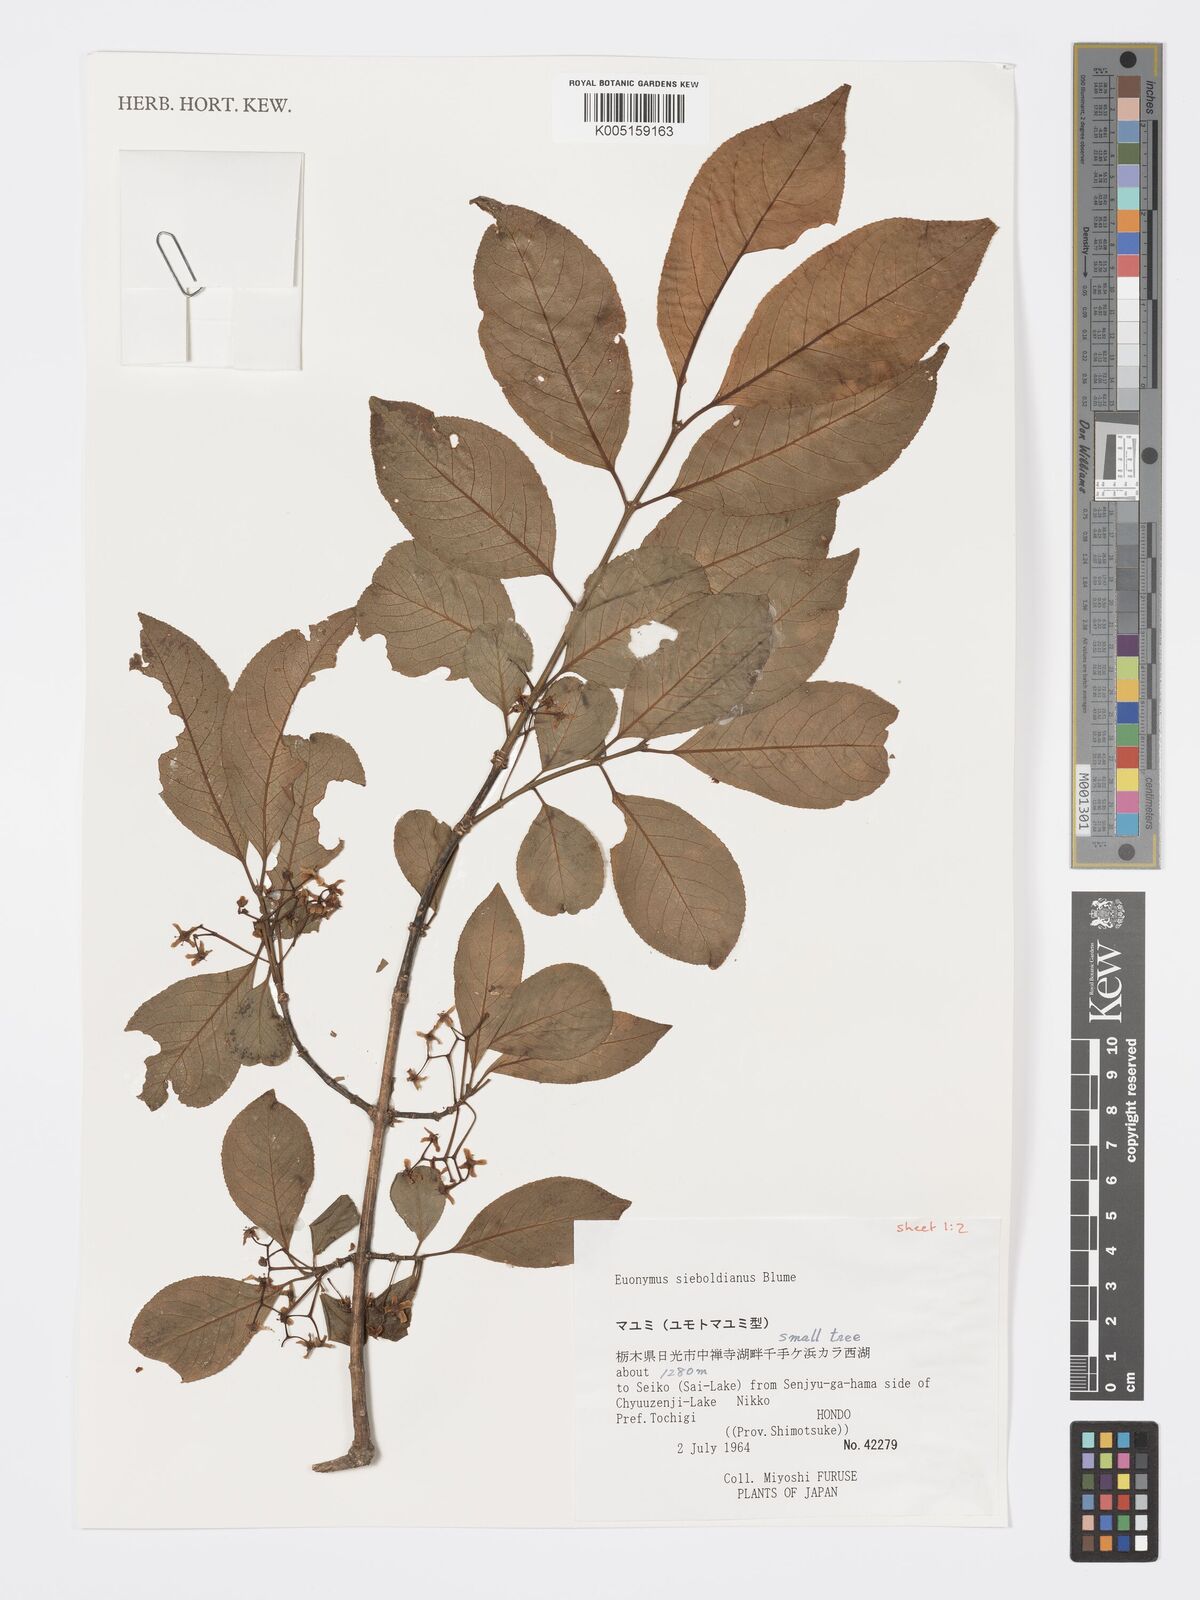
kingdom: Plantae
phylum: Tracheophyta
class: Magnoliopsida
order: Celastrales
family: Celastraceae
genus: Euonymus
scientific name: Euonymus hamiltonianus
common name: Hamilton's spindletree
